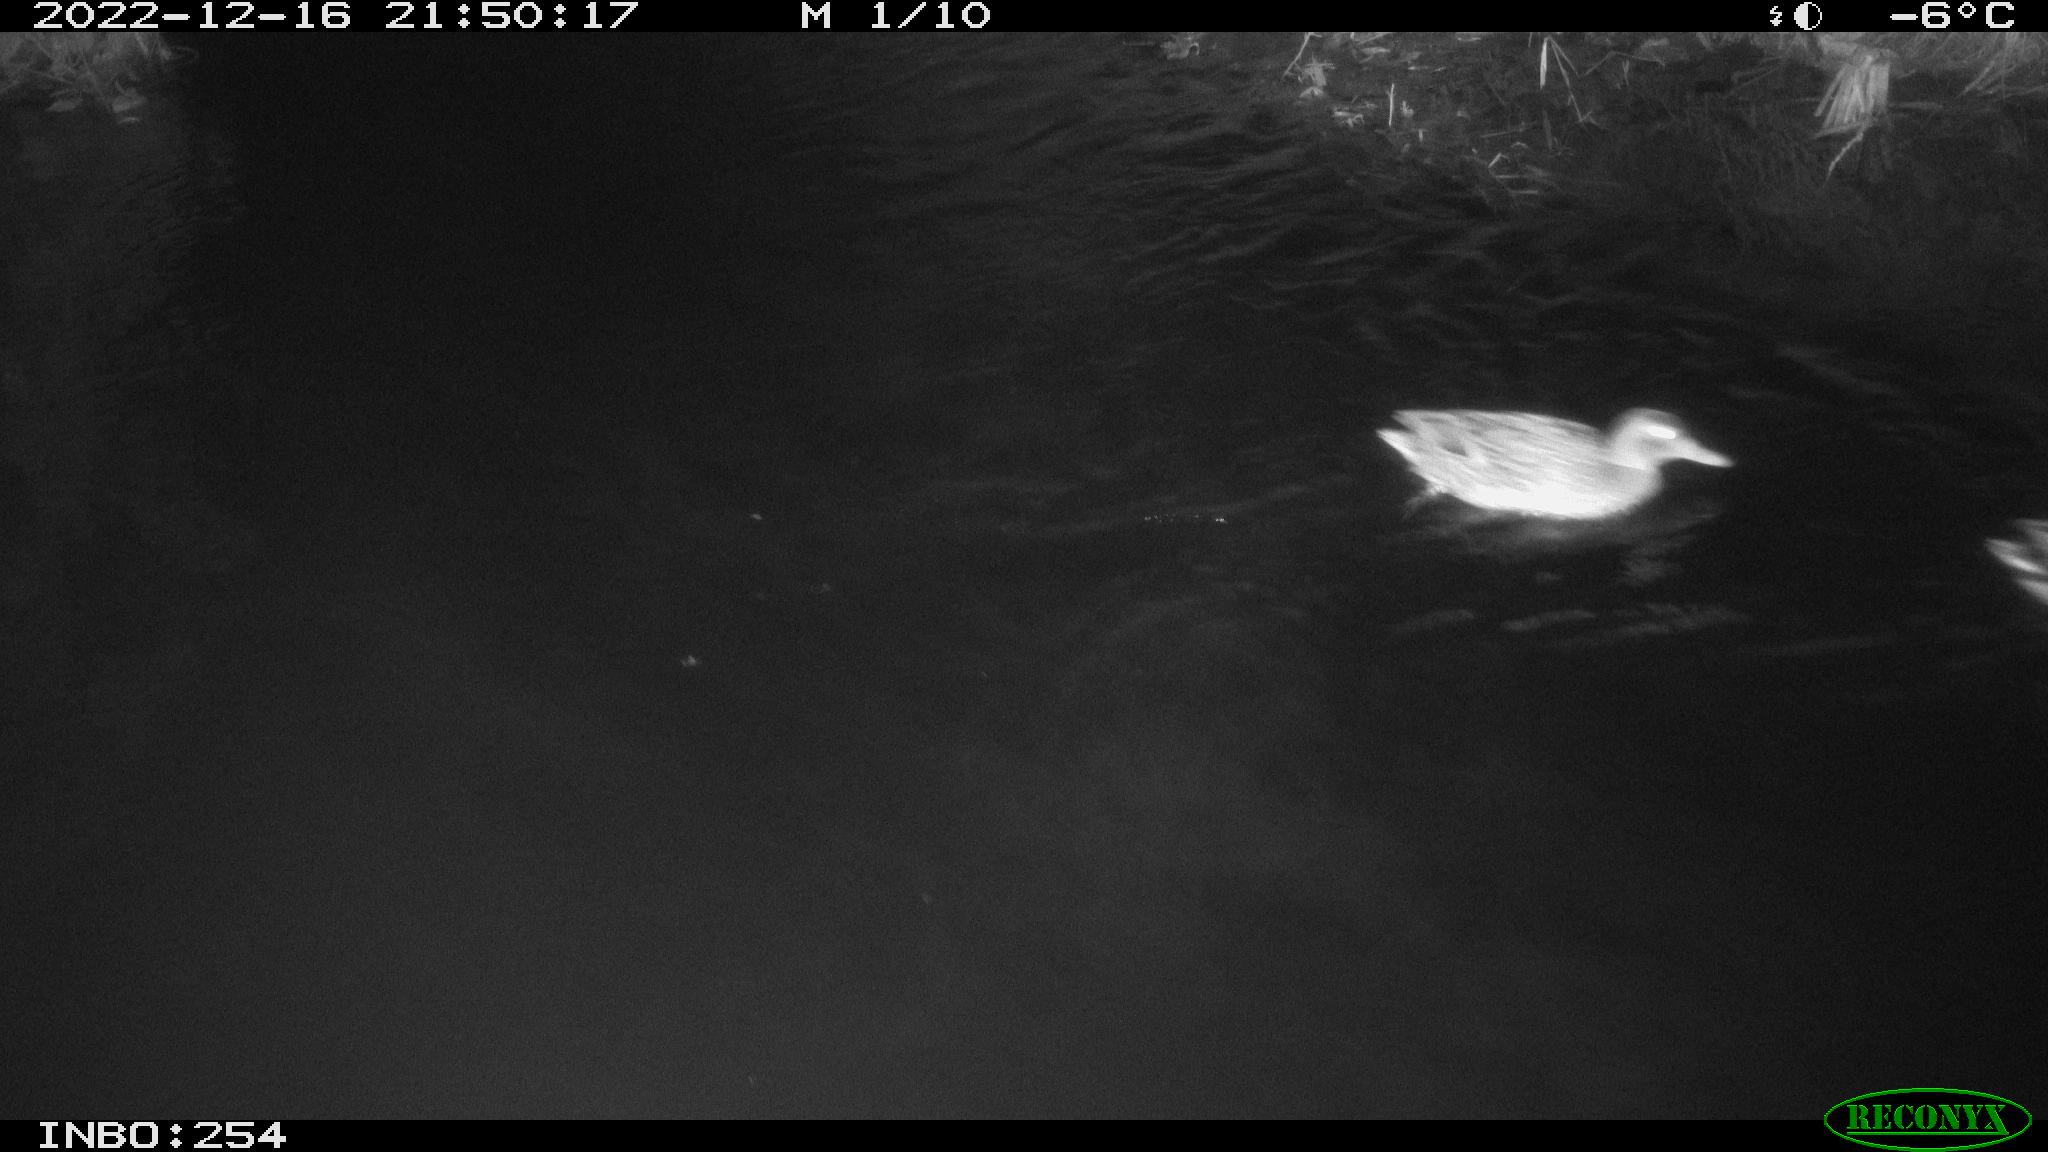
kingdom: Animalia
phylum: Chordata
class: Aves
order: Anseriformes
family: Anatidae
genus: Anas
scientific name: Anas
